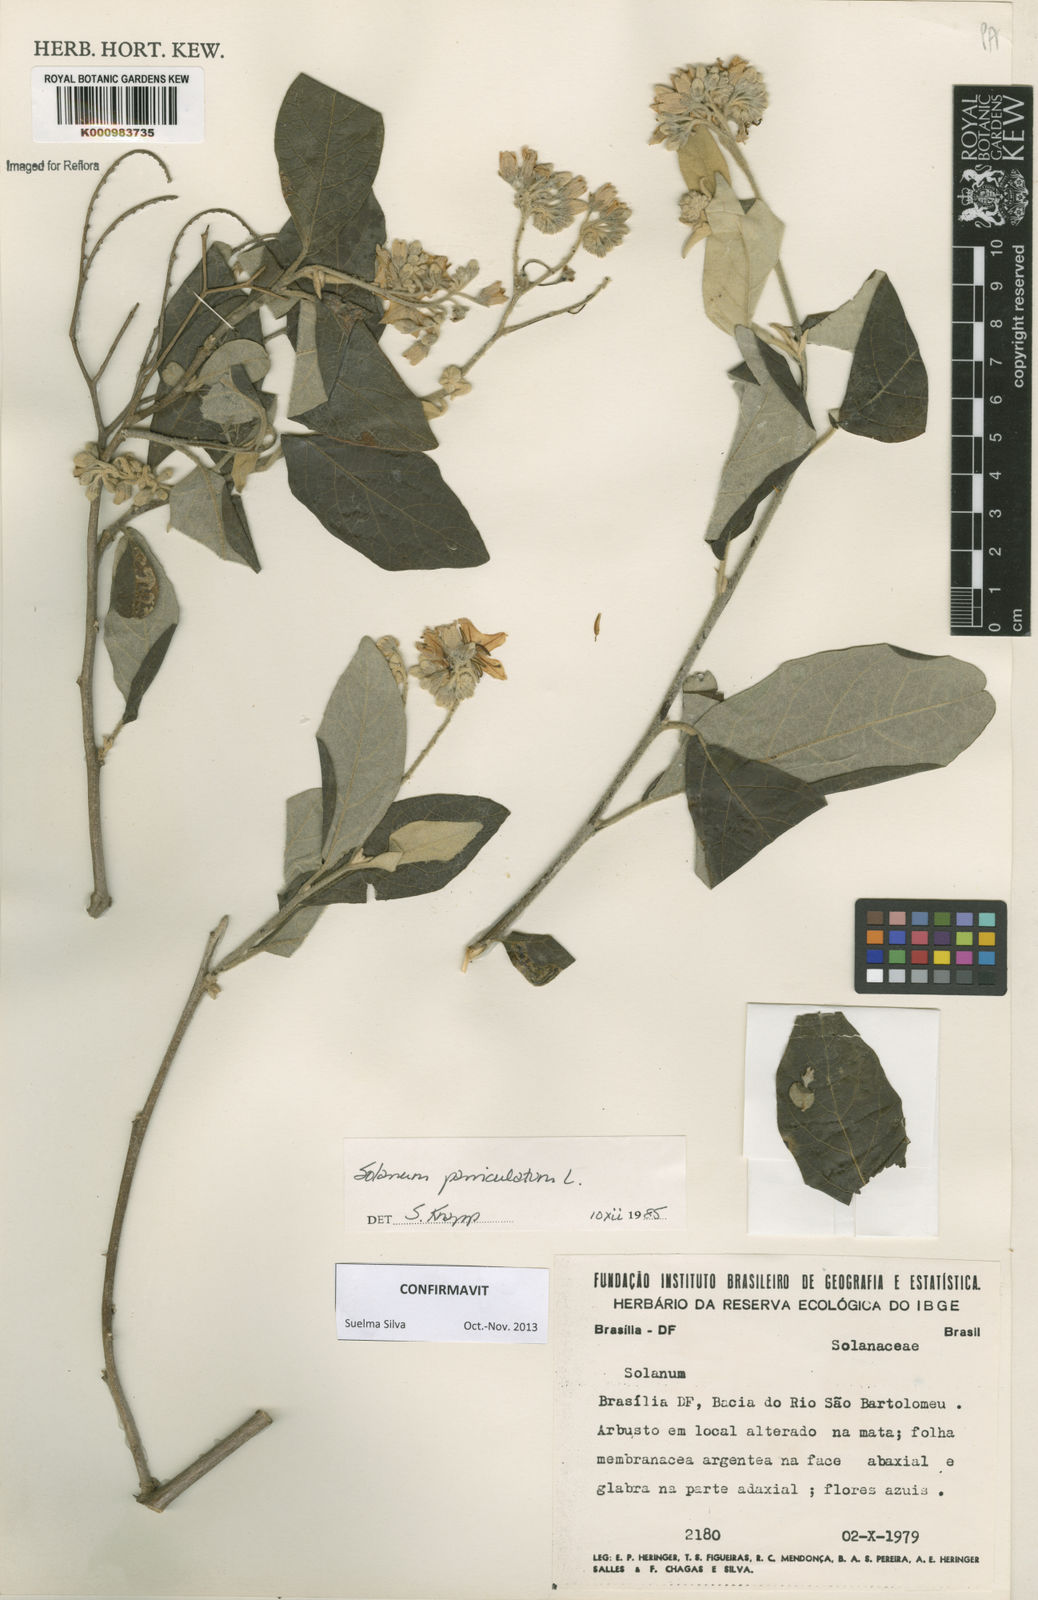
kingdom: Plantae
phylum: Tracheophyta
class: Magnoliopsida
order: Solanales
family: Solanaceae
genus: Solanum
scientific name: Solanum paniculatum
